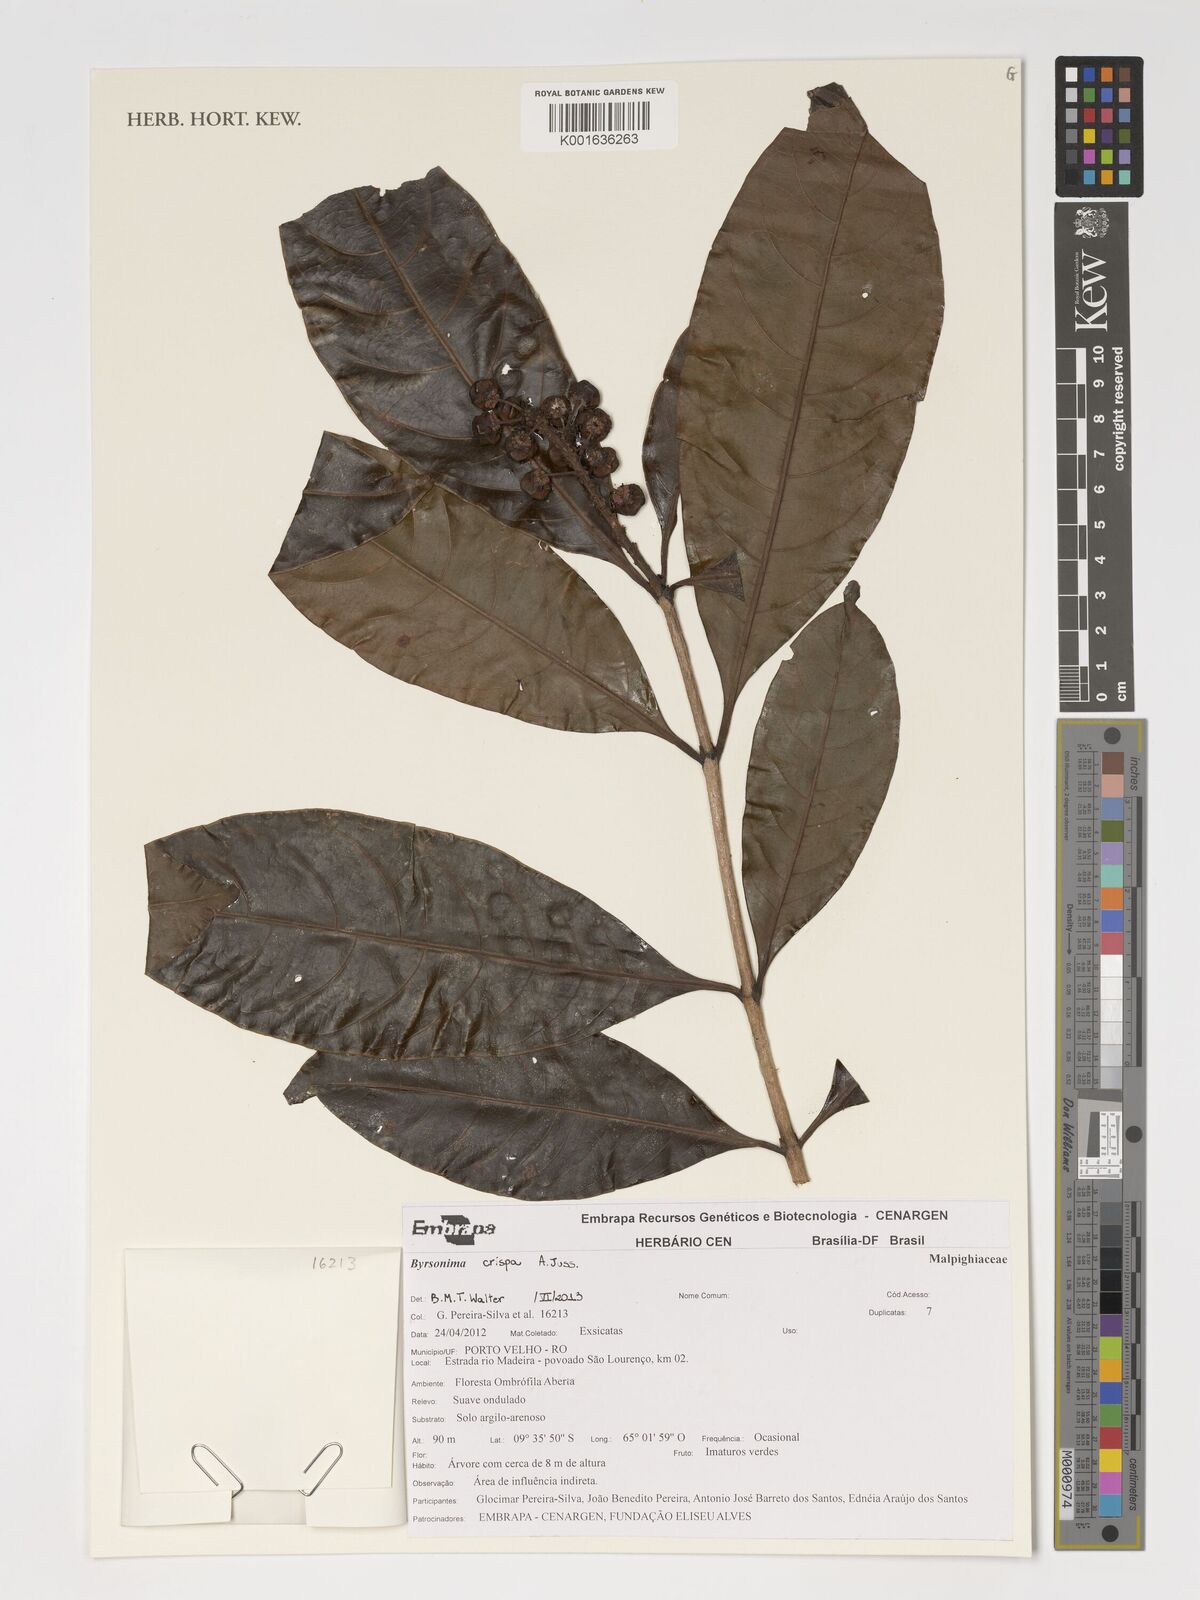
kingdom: Plantae
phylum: Tracheophyta
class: Magnoliopsida
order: Malpighiales
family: Malpighiaceae
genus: Byrsonima
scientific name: Byrsonima crispa
